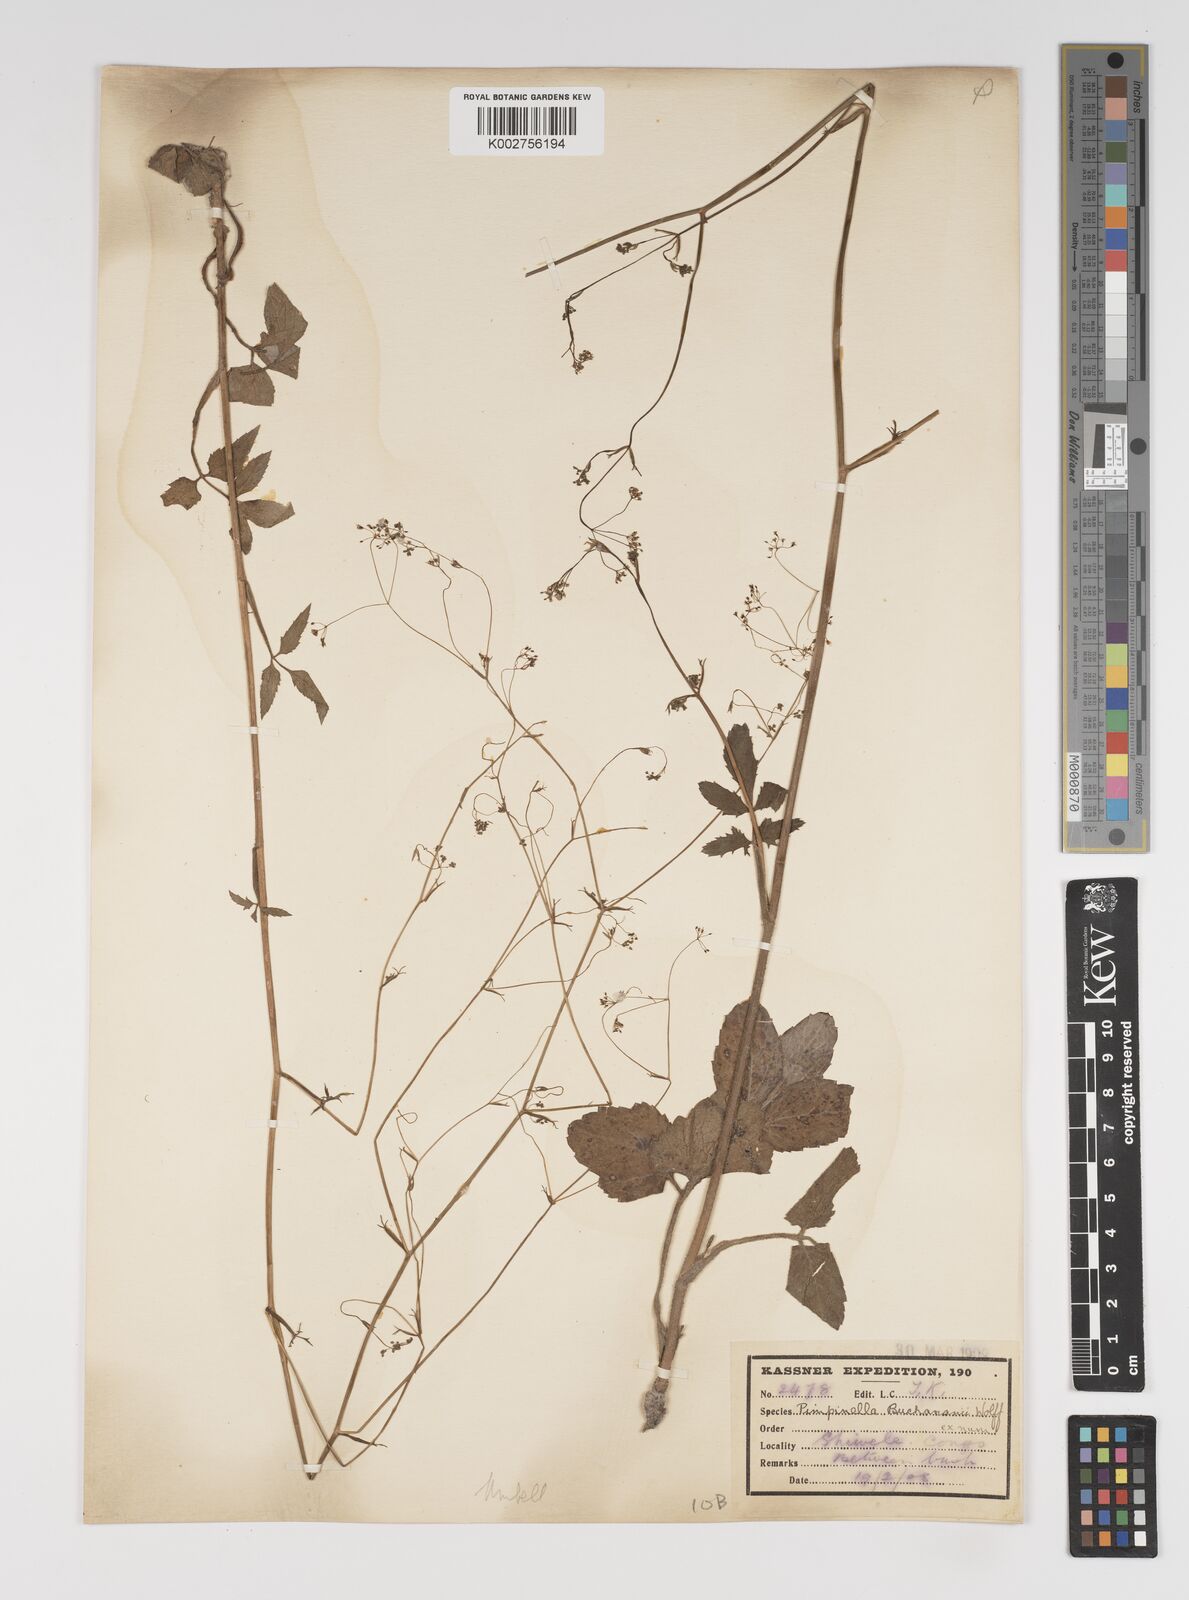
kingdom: Plantae
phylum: Tracheophyta
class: Magnoliopsida
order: Apiales
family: Apiaceae
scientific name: Apiaceae
